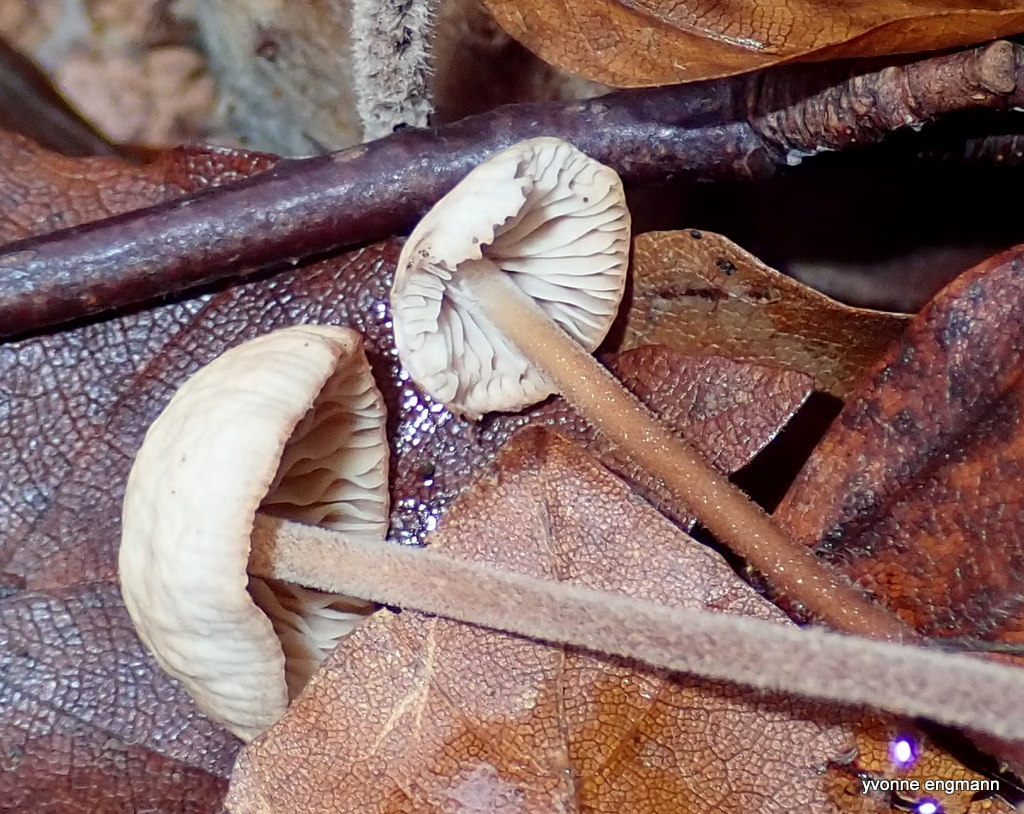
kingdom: Fungi
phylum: Basidiomycota
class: Agaricomycetes
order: Agaricales
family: Omphalotaceae
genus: Mycetinis
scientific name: Mycetinis querceus
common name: ege-løghat
